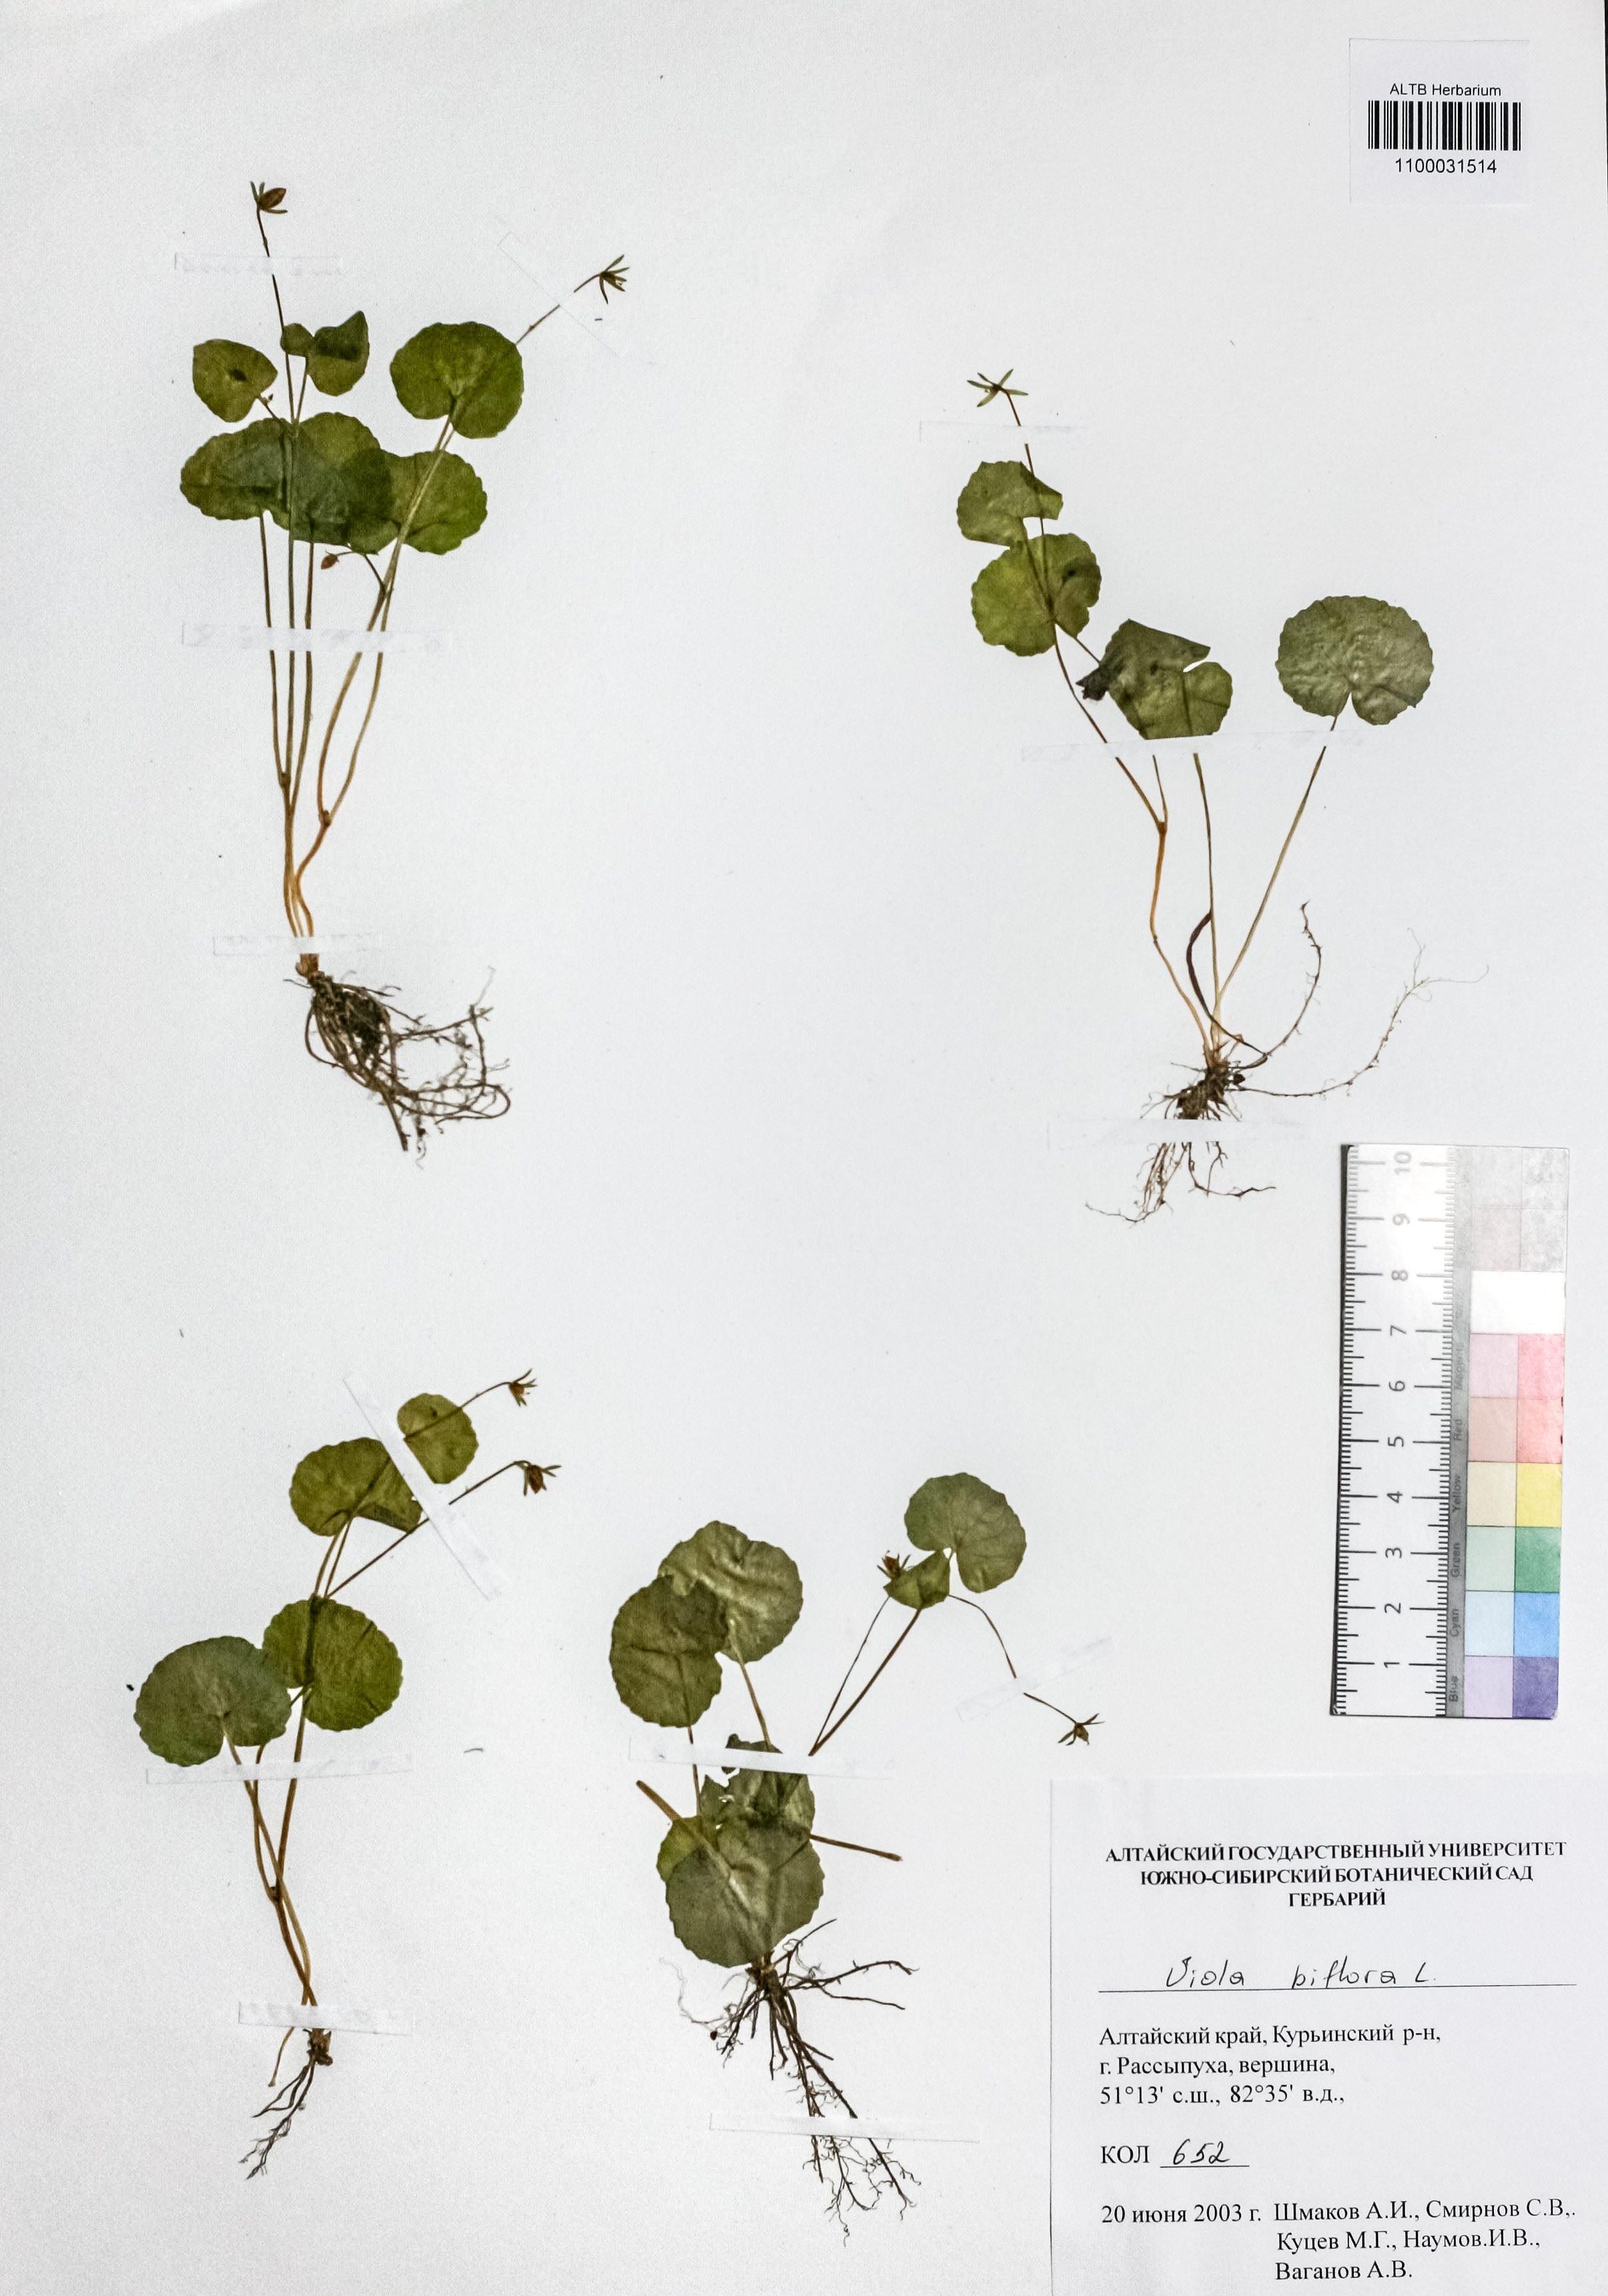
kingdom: Plantae
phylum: Tracheophyta
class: Magnoliopsida
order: Malpighiales
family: Violaceae
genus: Viola
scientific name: Viola biflora
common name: Alpine yellow violet
